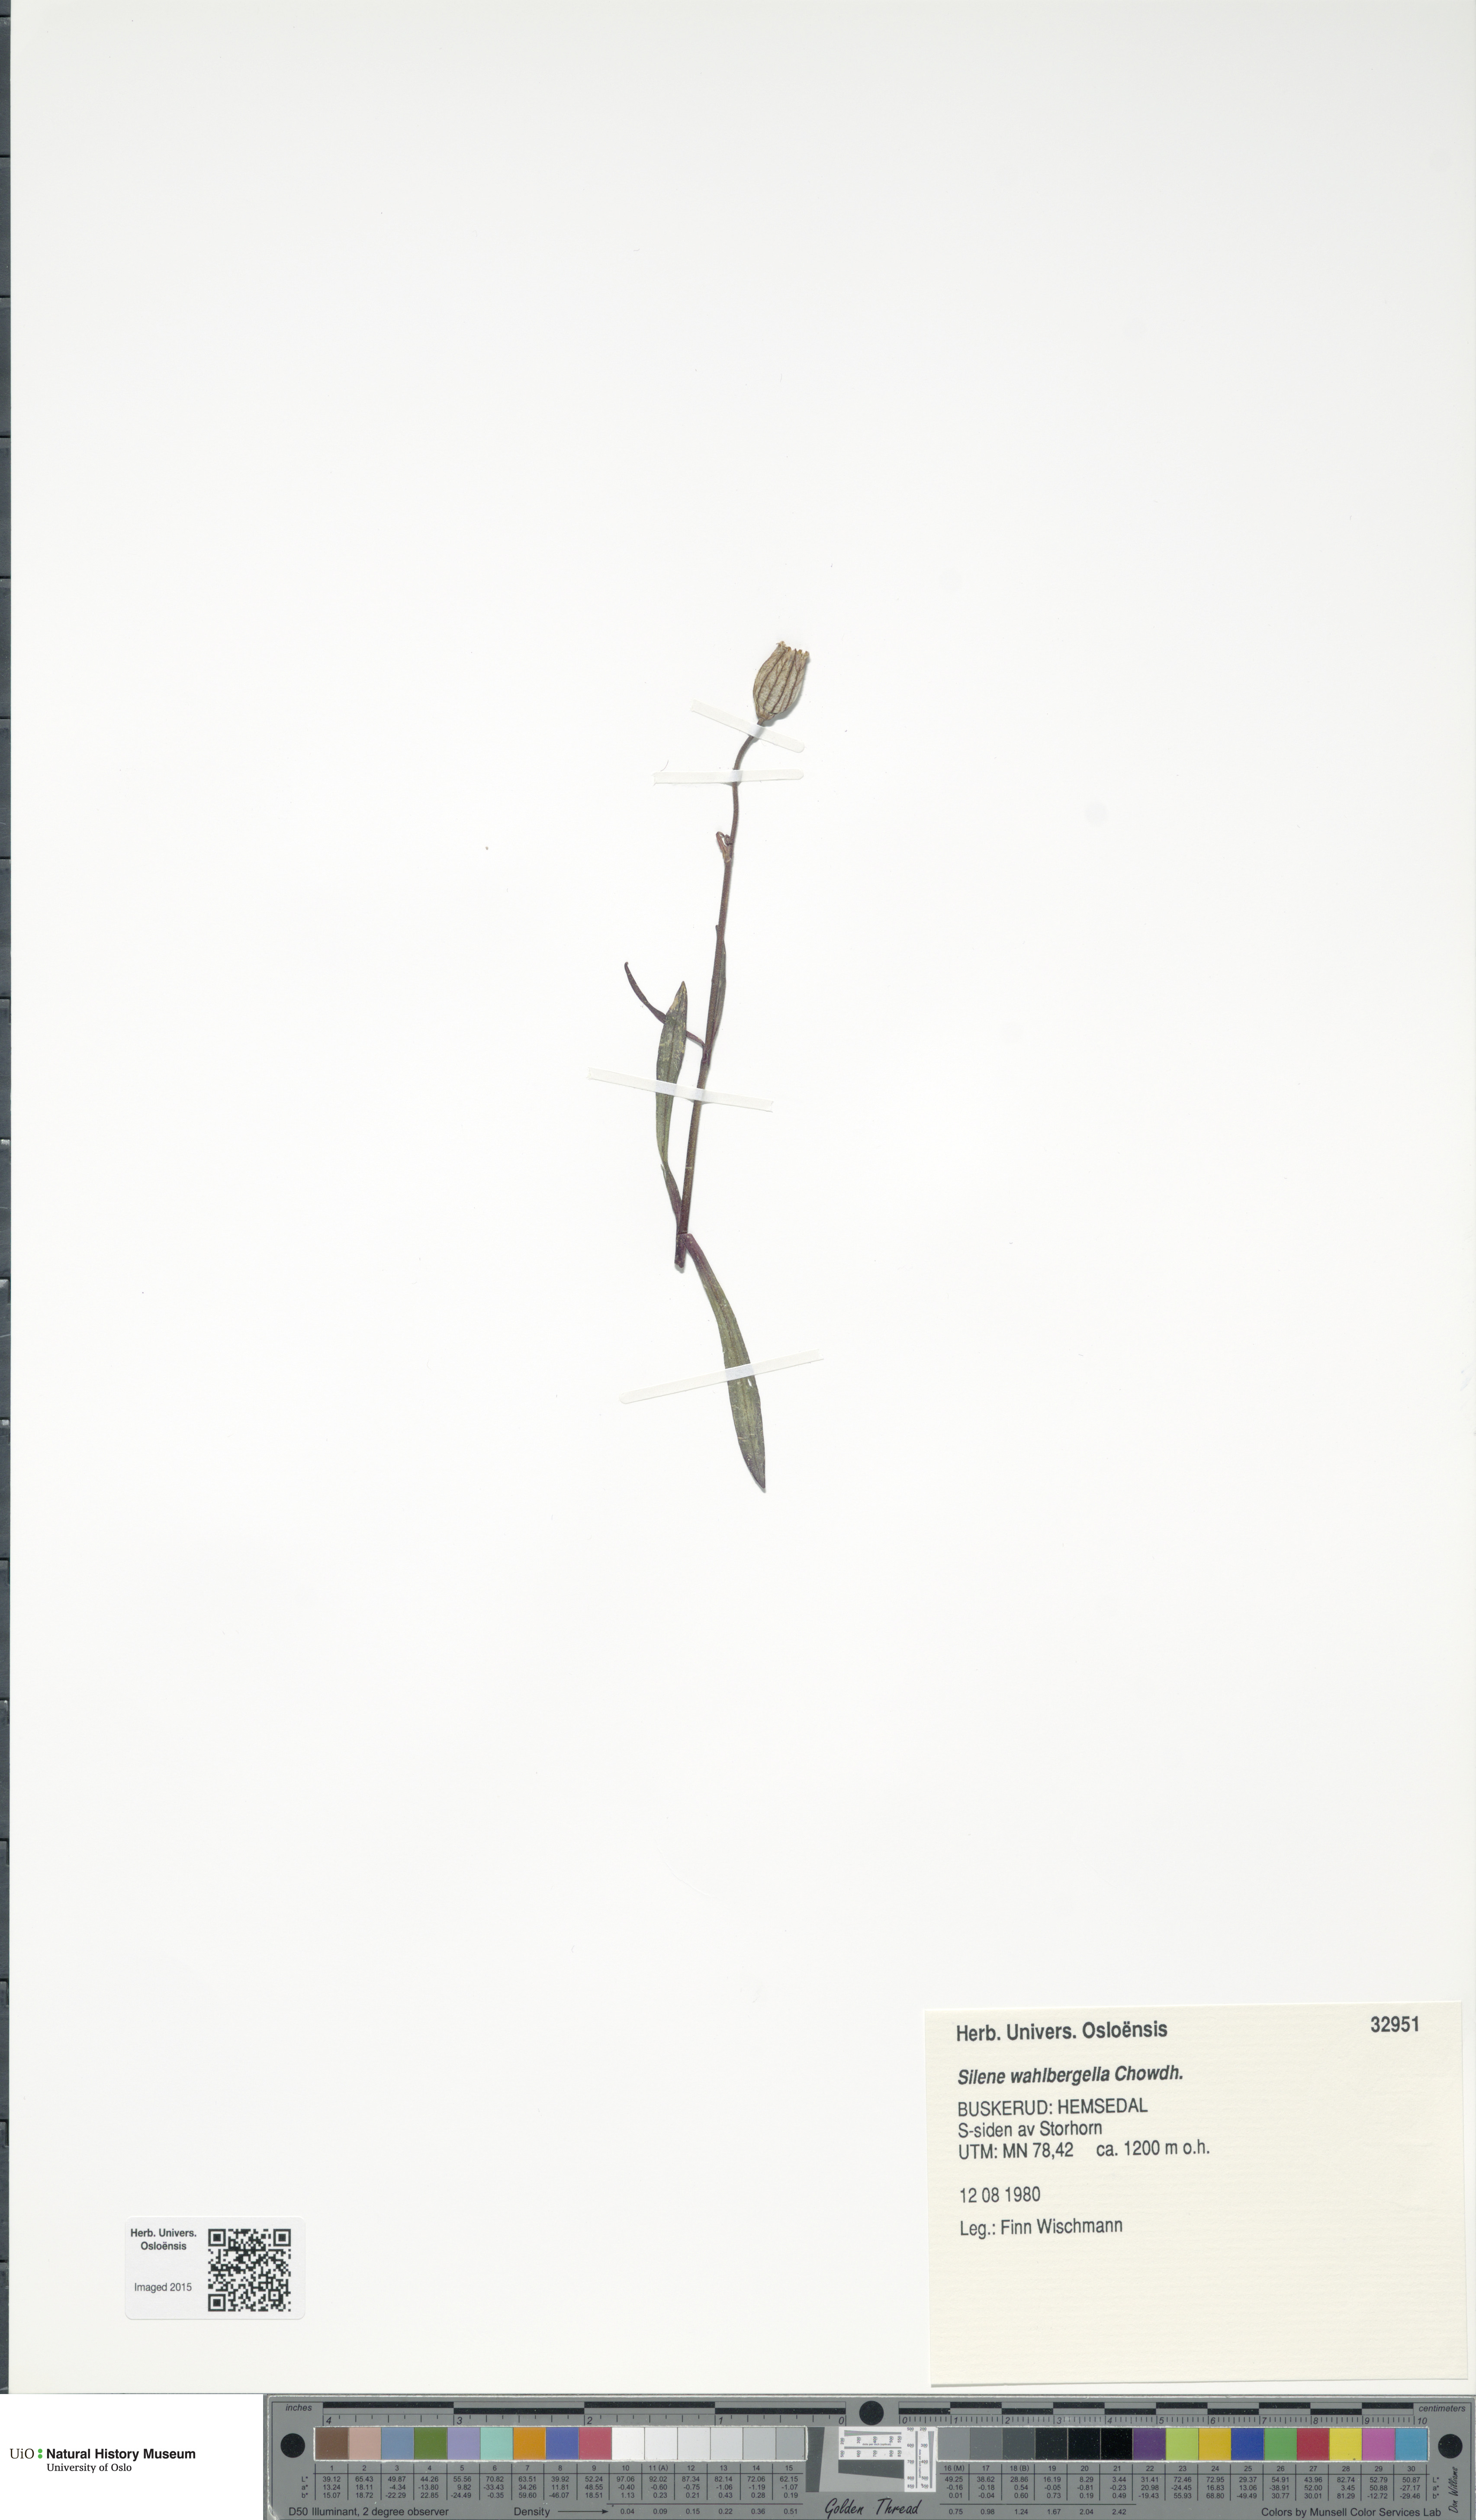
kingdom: Plantae
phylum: Tracheophyta
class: Magnoliopsida
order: Caryophyllales
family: Caryophyllaceae
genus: Silene
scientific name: Silene wahlbergella
